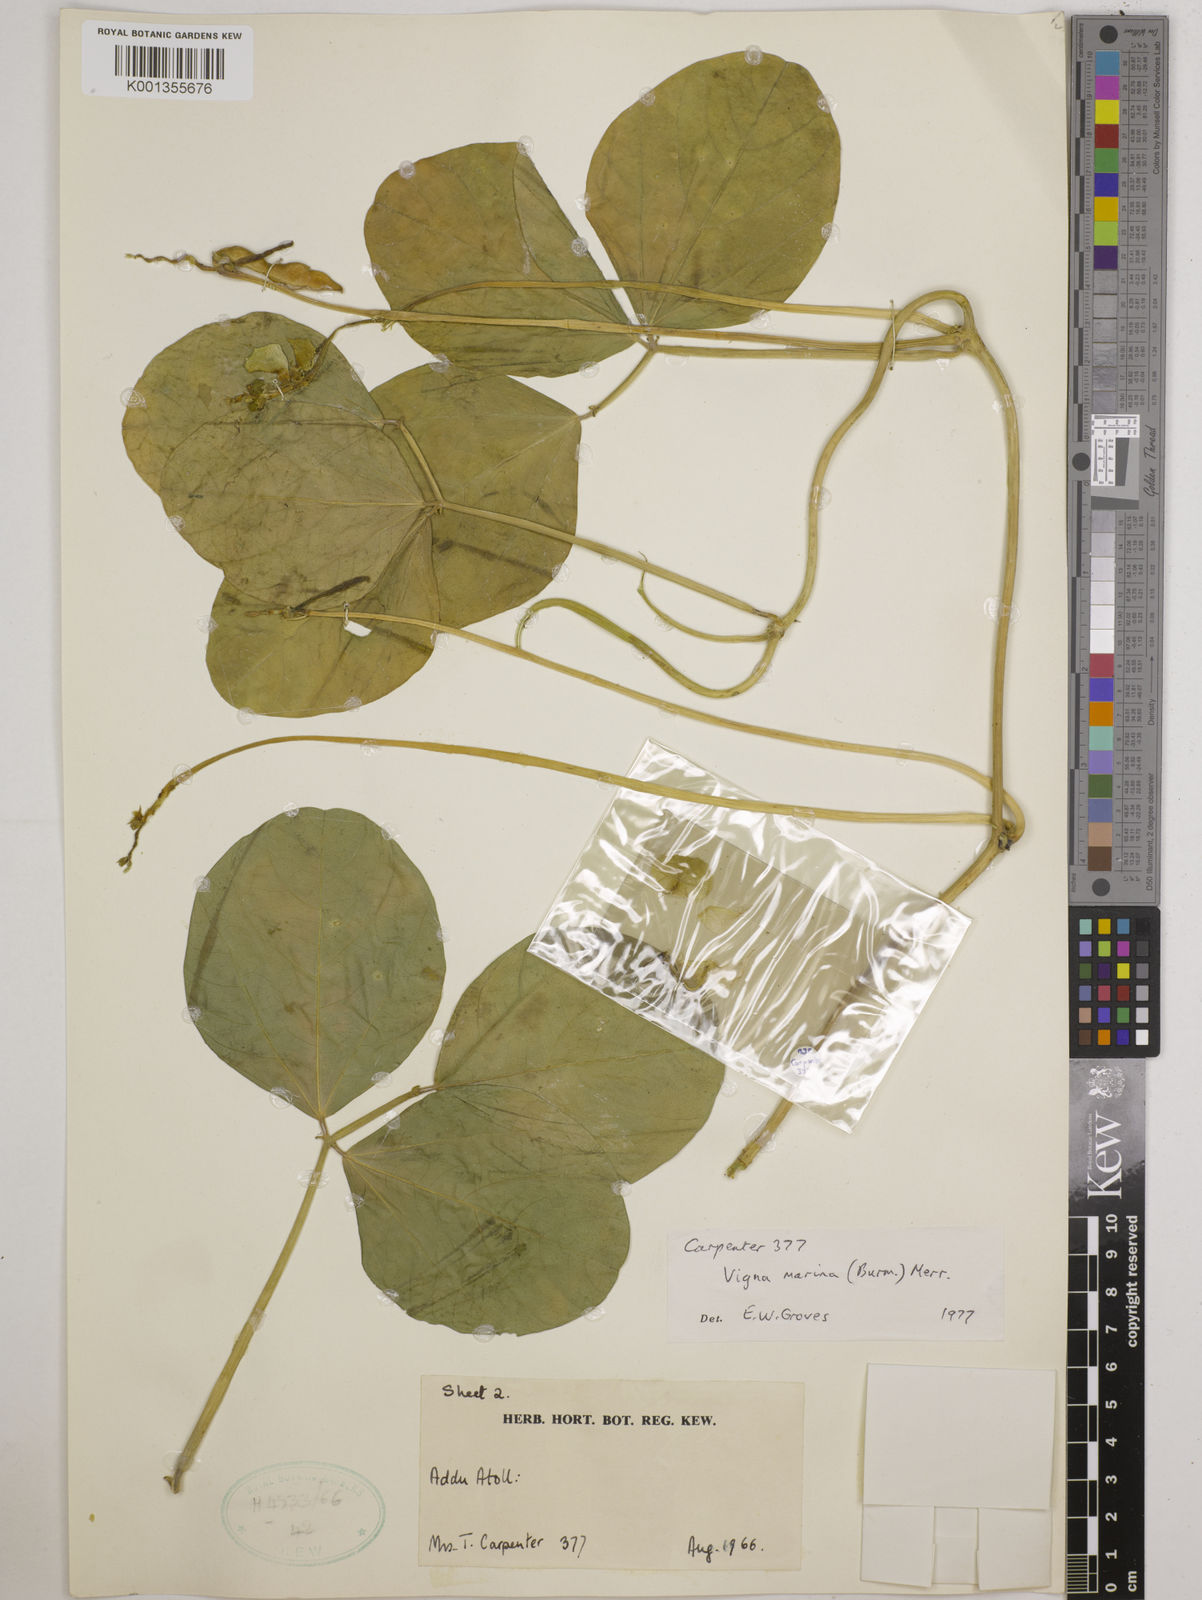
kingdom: Plantae
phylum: Tracheophyta
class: Magnoliopsida
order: Fabales
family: Fabaceae
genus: Vigna
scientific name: Vigna marina
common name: Dune-bean
